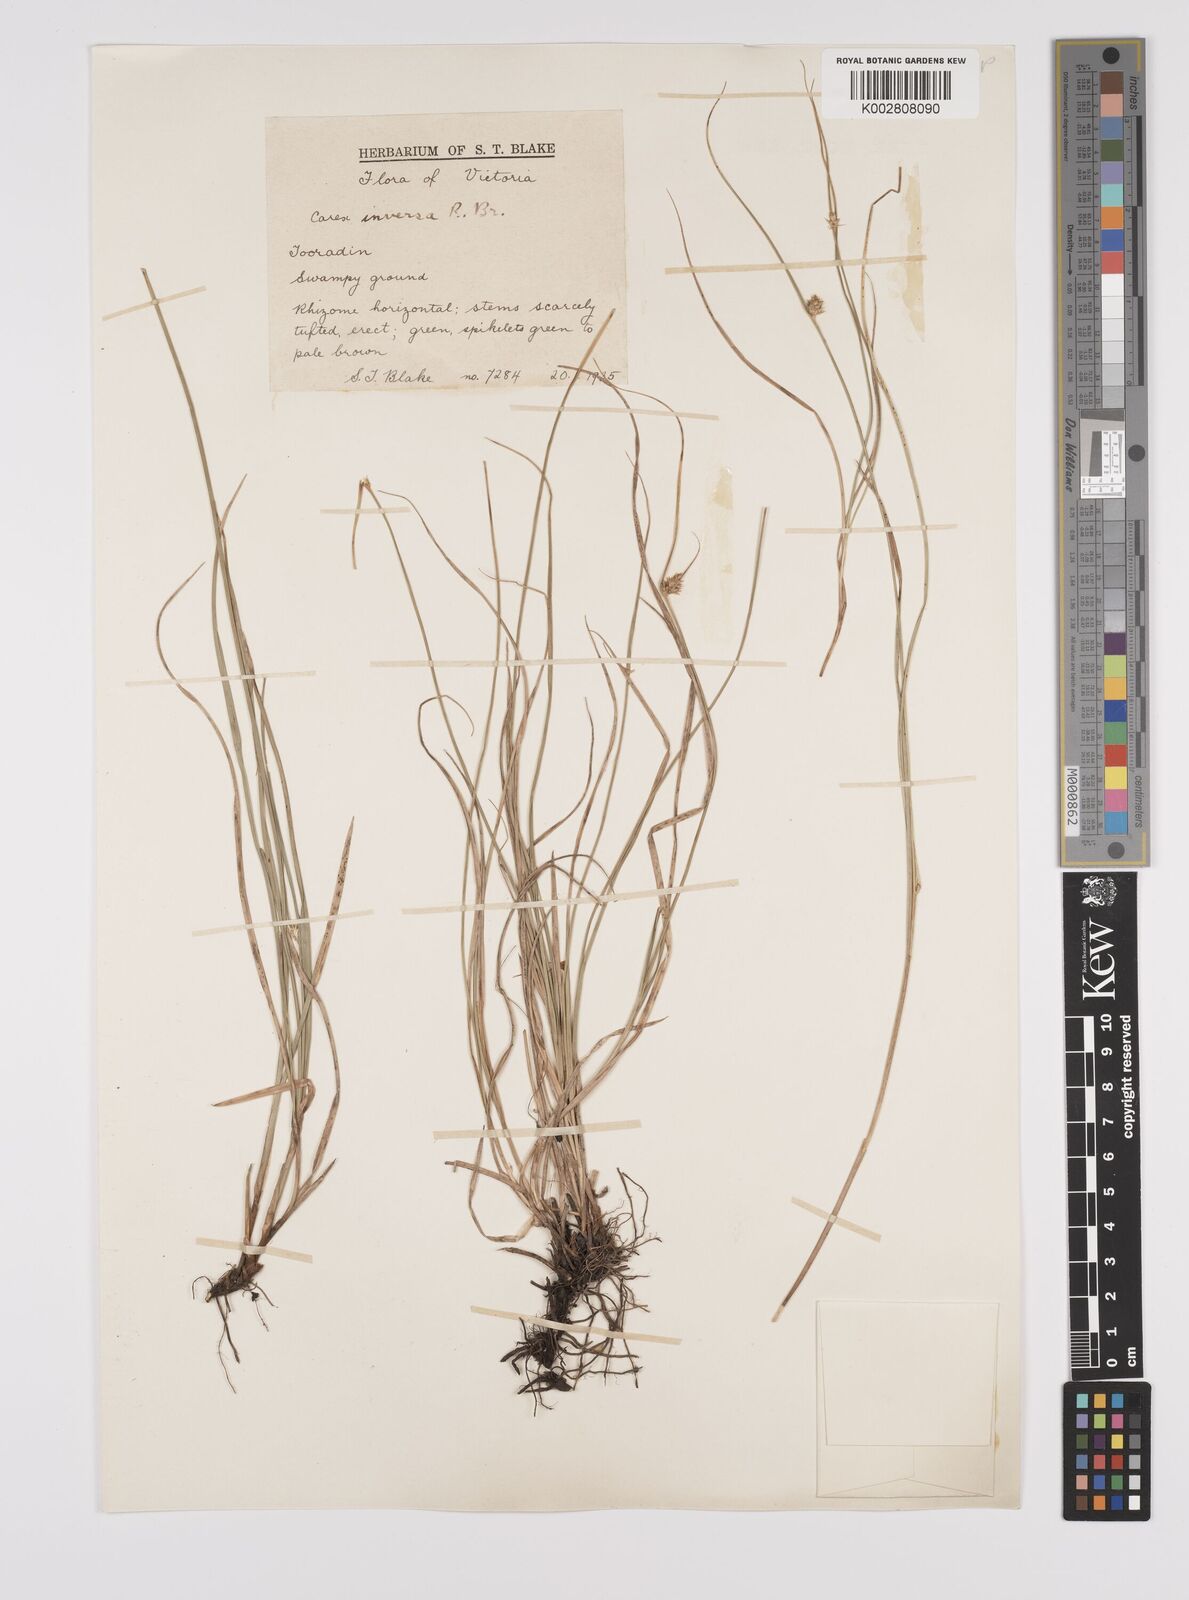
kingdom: Plantae
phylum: Tracheophyta
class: Liliopsida
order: Poales
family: Cyperaceae
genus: Carex
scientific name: Carex inversa
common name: Knob sedge
